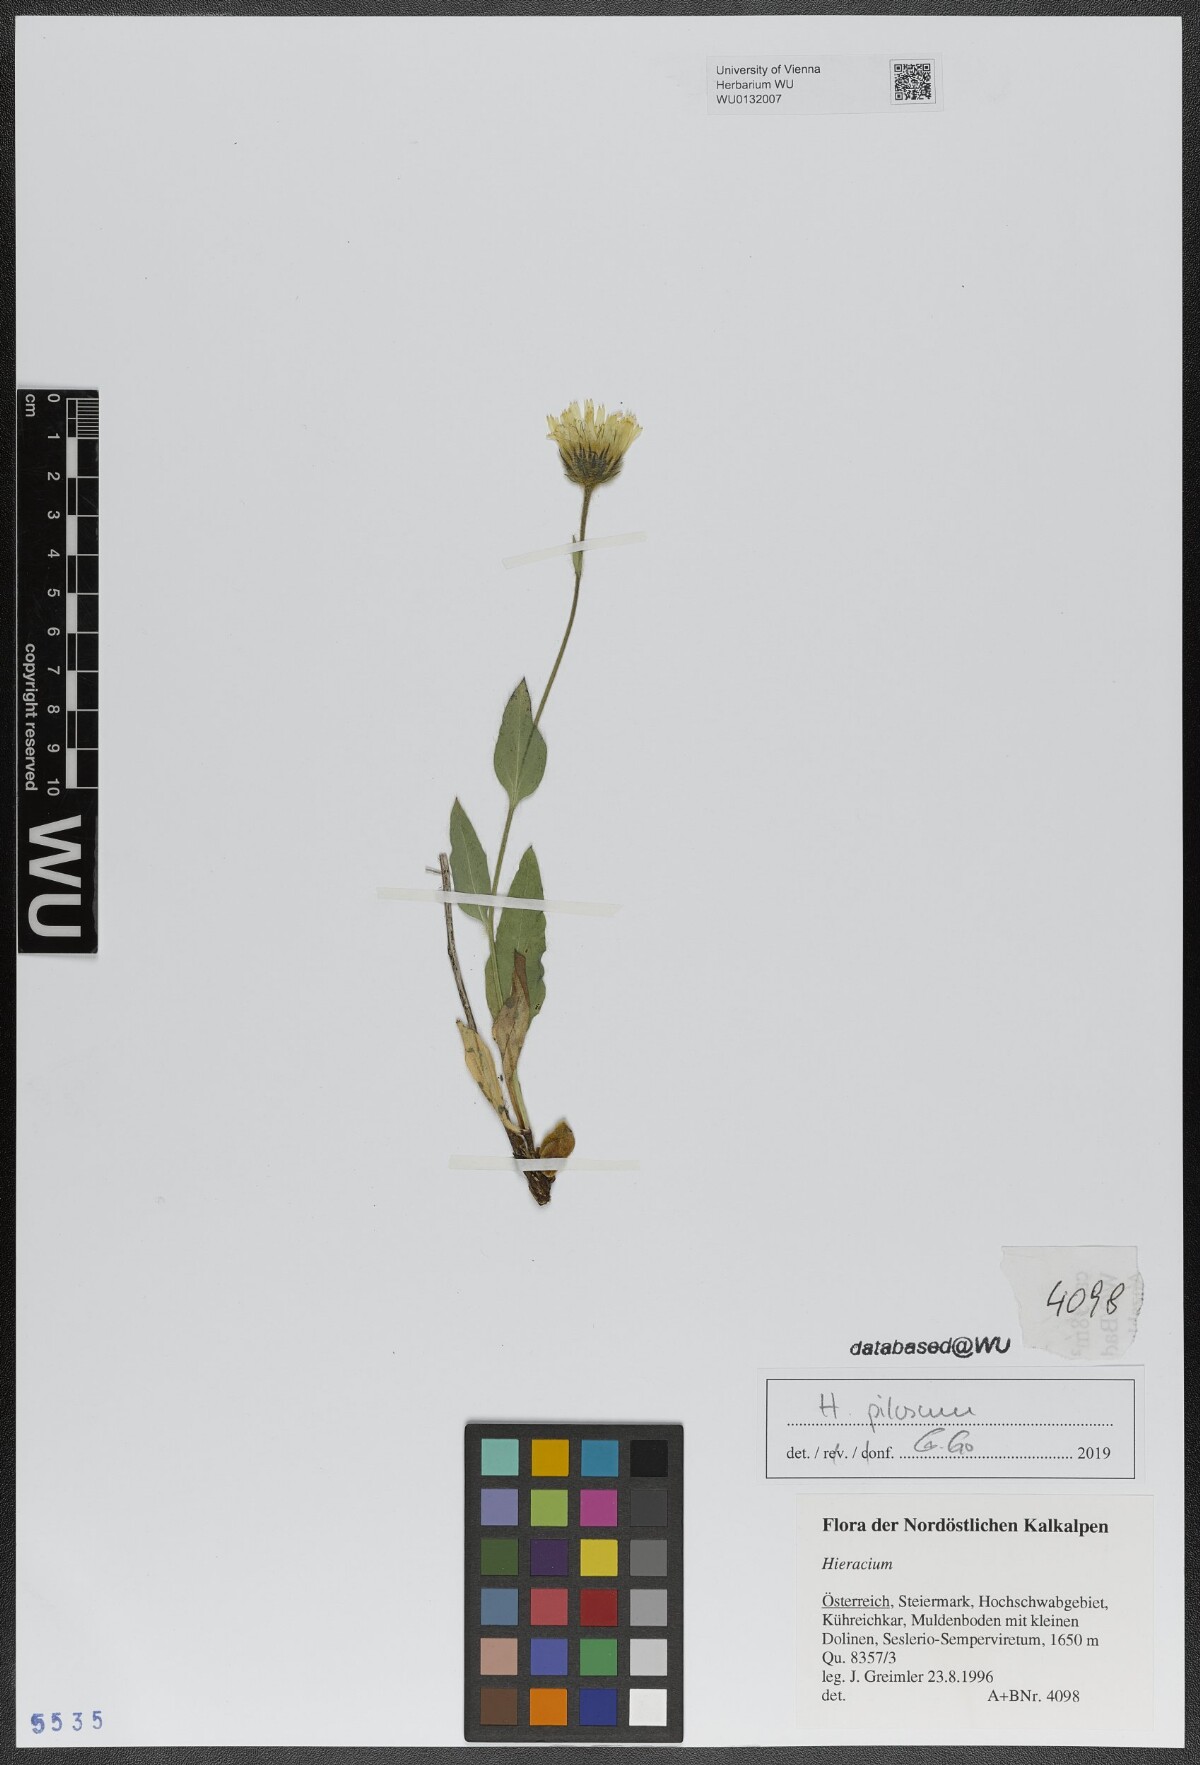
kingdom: Plantae
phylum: Tracheophyta
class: Magnoliopsida
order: Asterales
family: Asteraceae
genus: Hieracium
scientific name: Hieracium pilosum
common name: Fimbriate-pitted hawkweed
